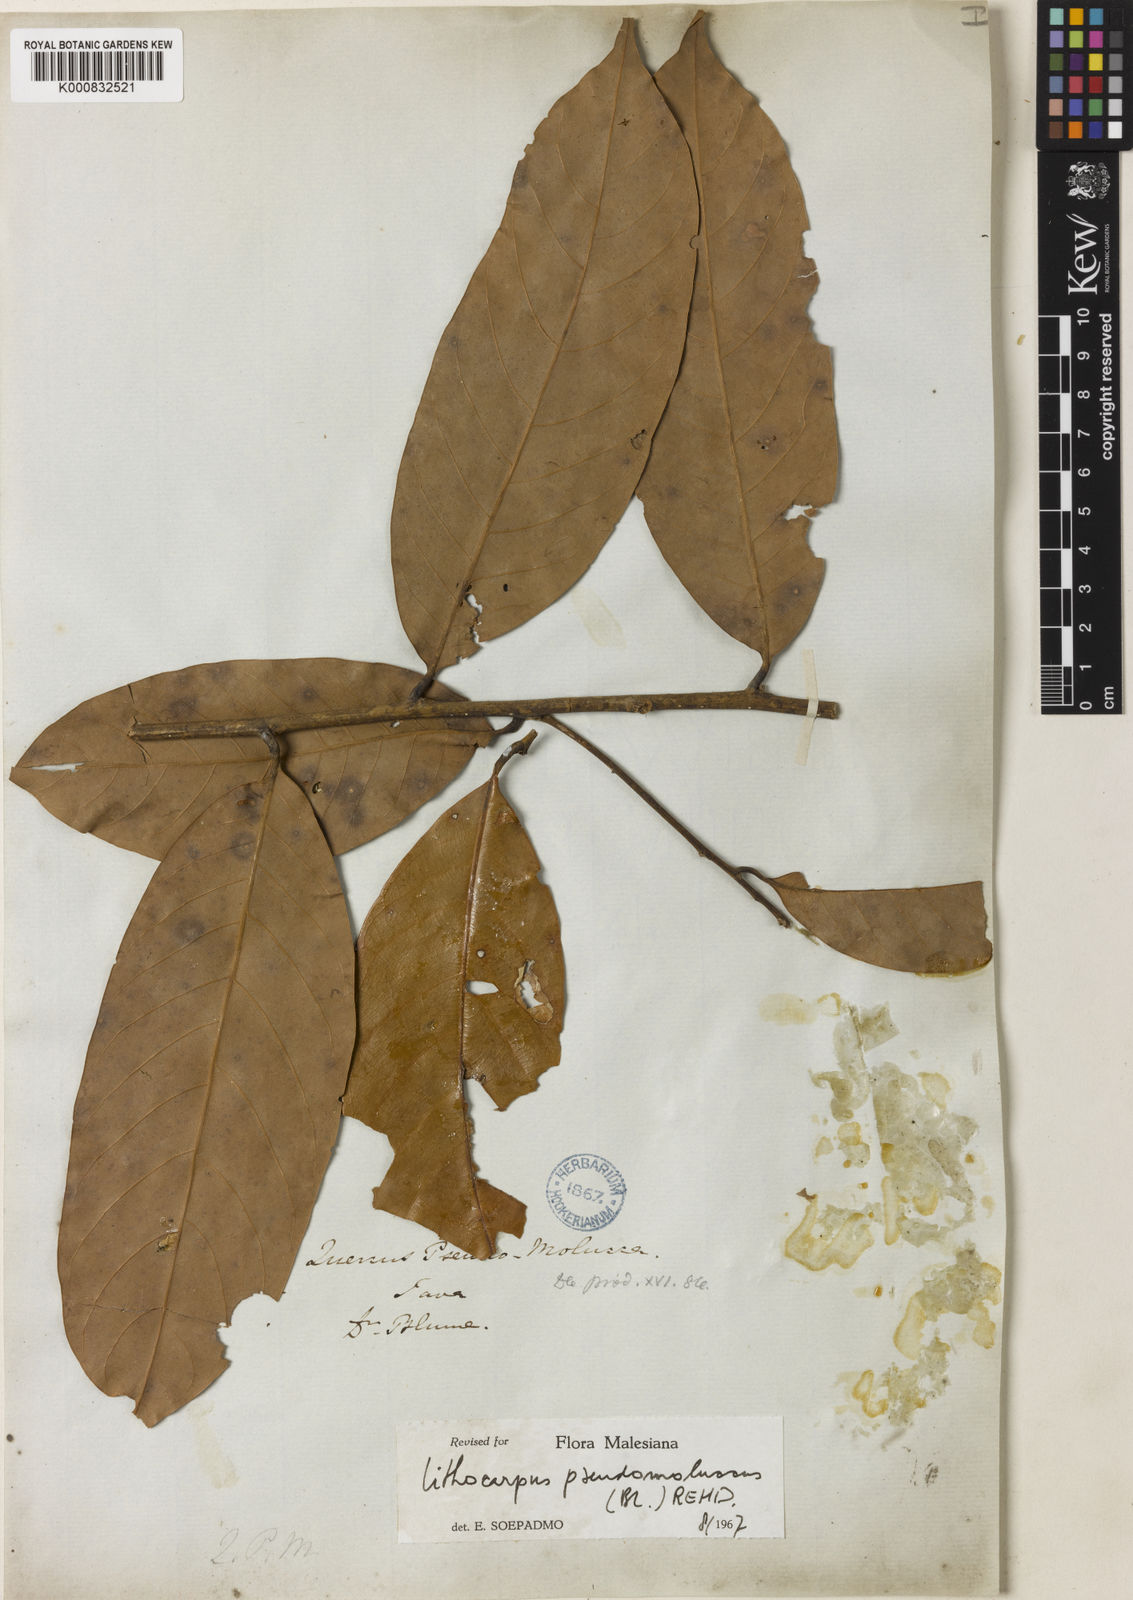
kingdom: Plantae
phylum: Tracheophyta
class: Magnoliopsida
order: Fagales
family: Fagaceae
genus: Lithocarpus
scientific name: Lithocarpus pseudomoluccus
